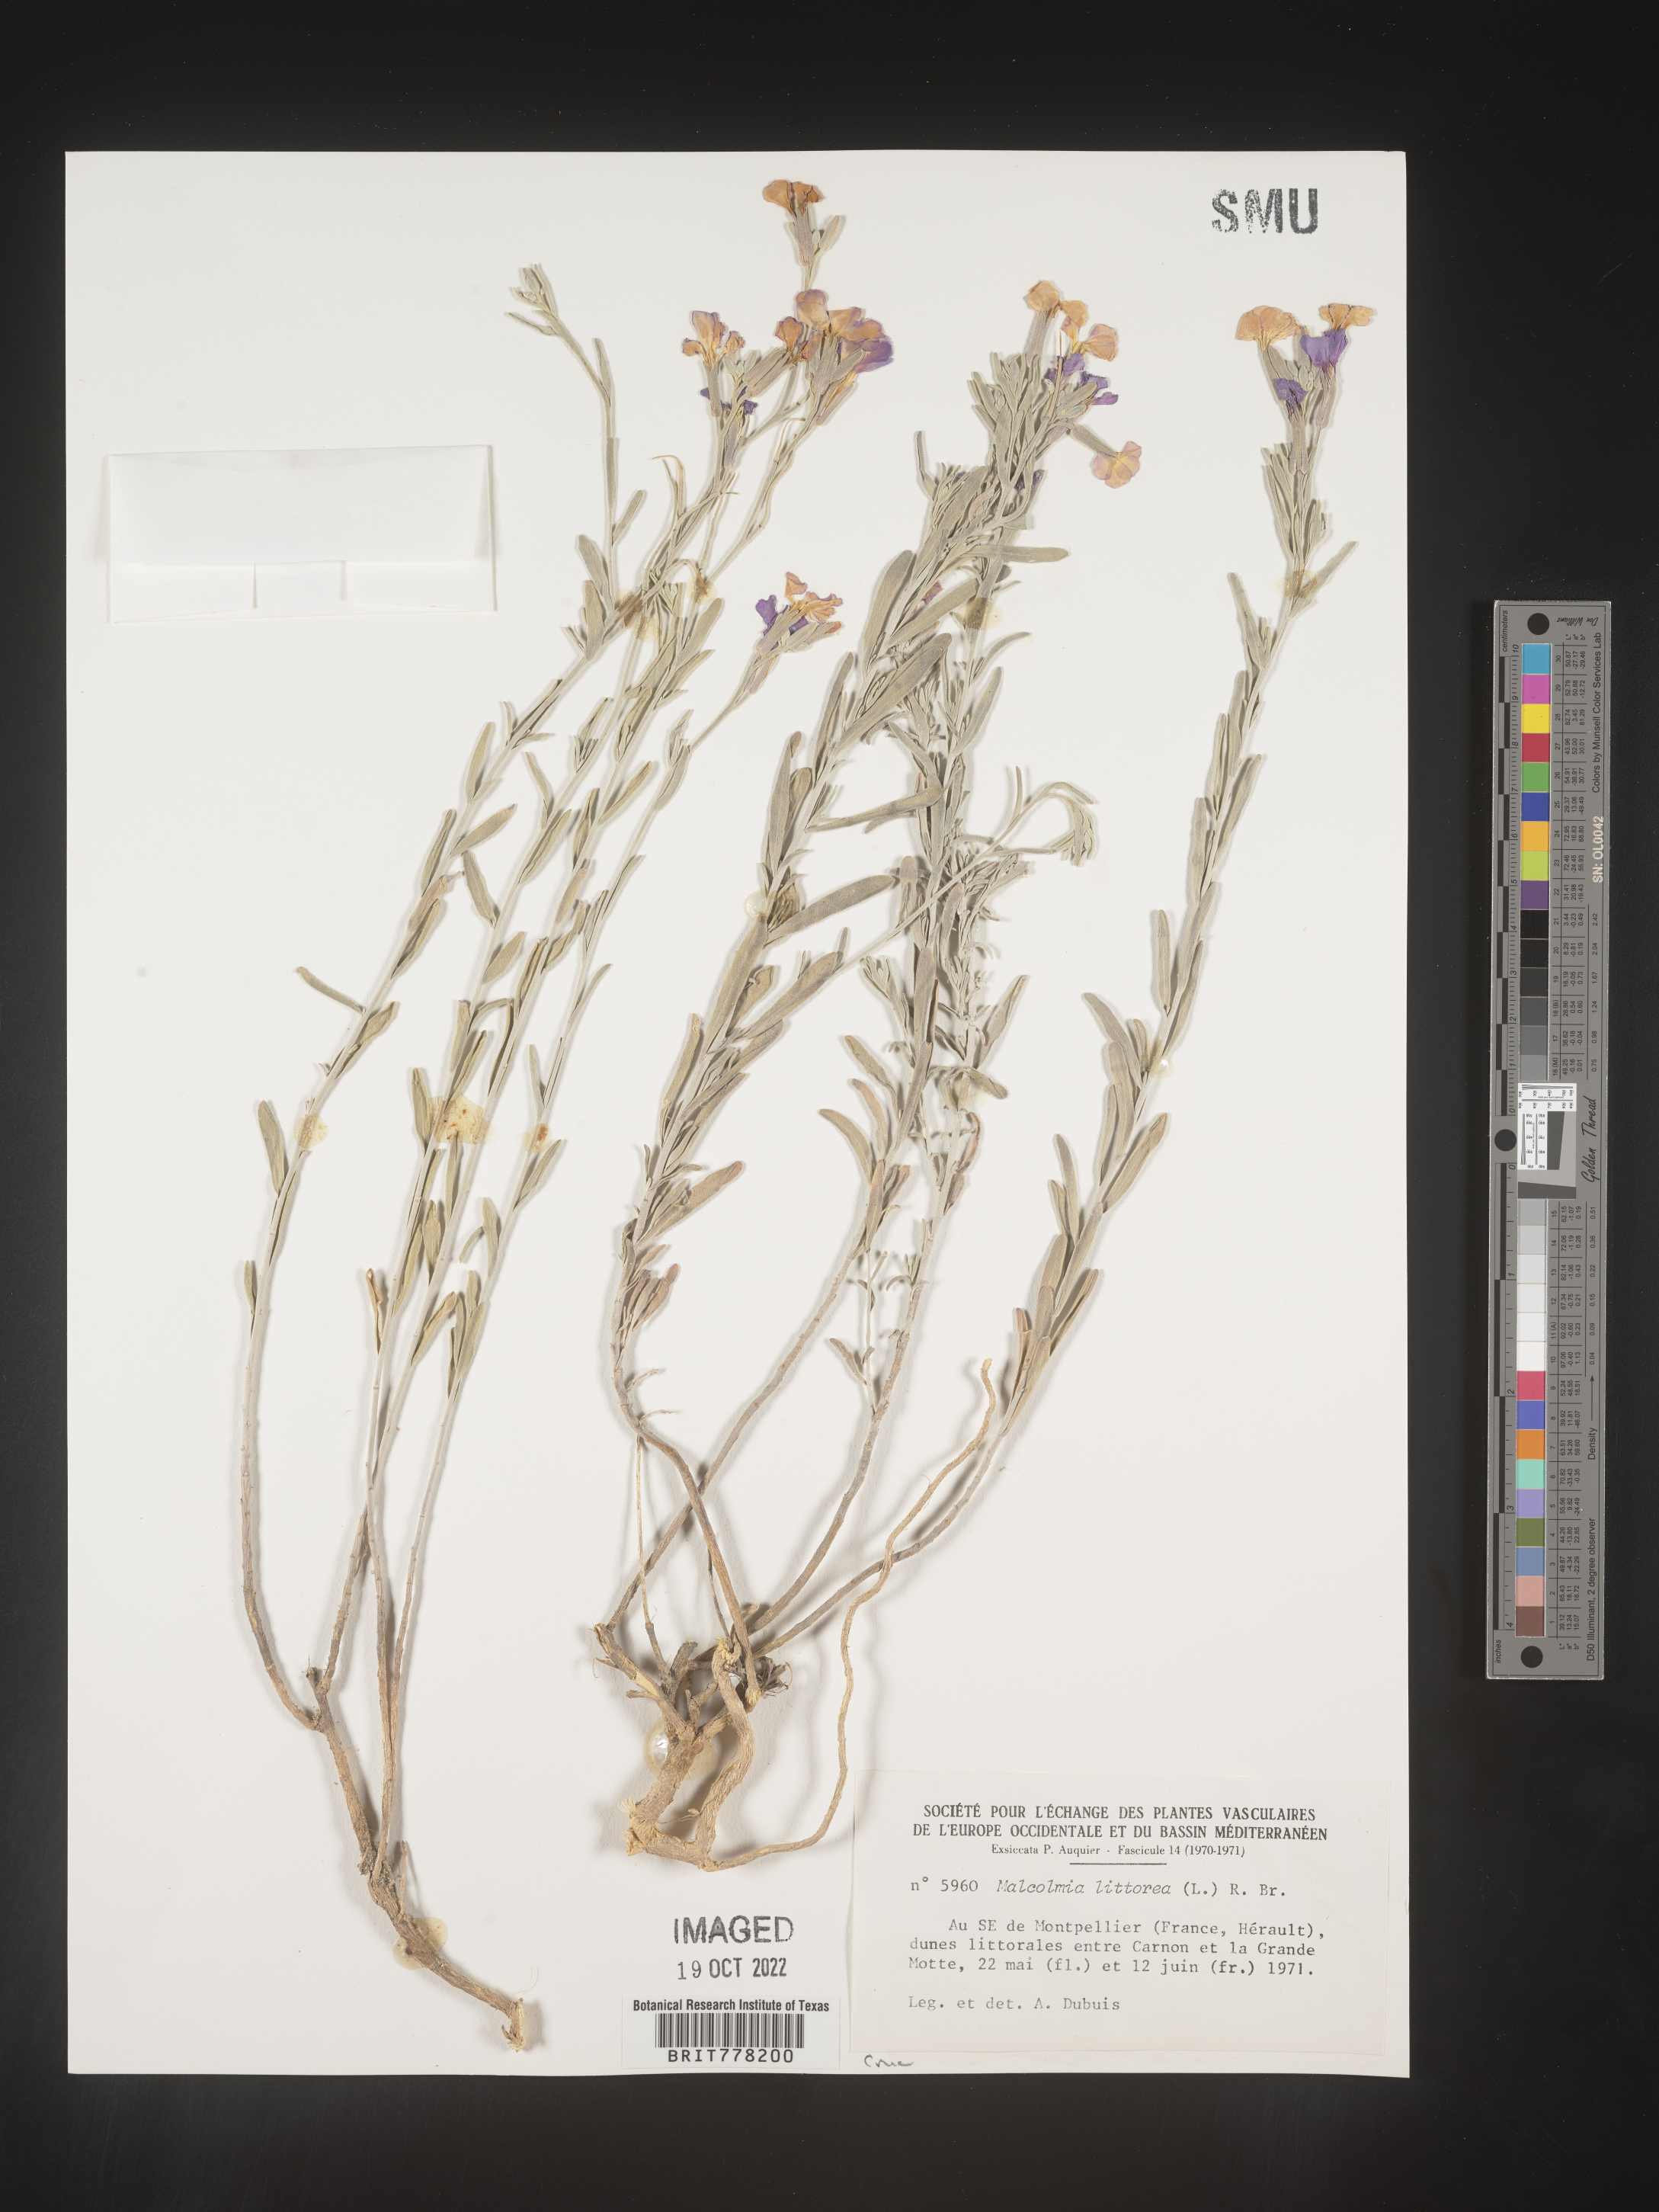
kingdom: Plantae
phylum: Tracheophyta
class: Magnoliopsida
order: Brassicales
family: Brassicaceae
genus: Malcolmia
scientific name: Malcolmia
